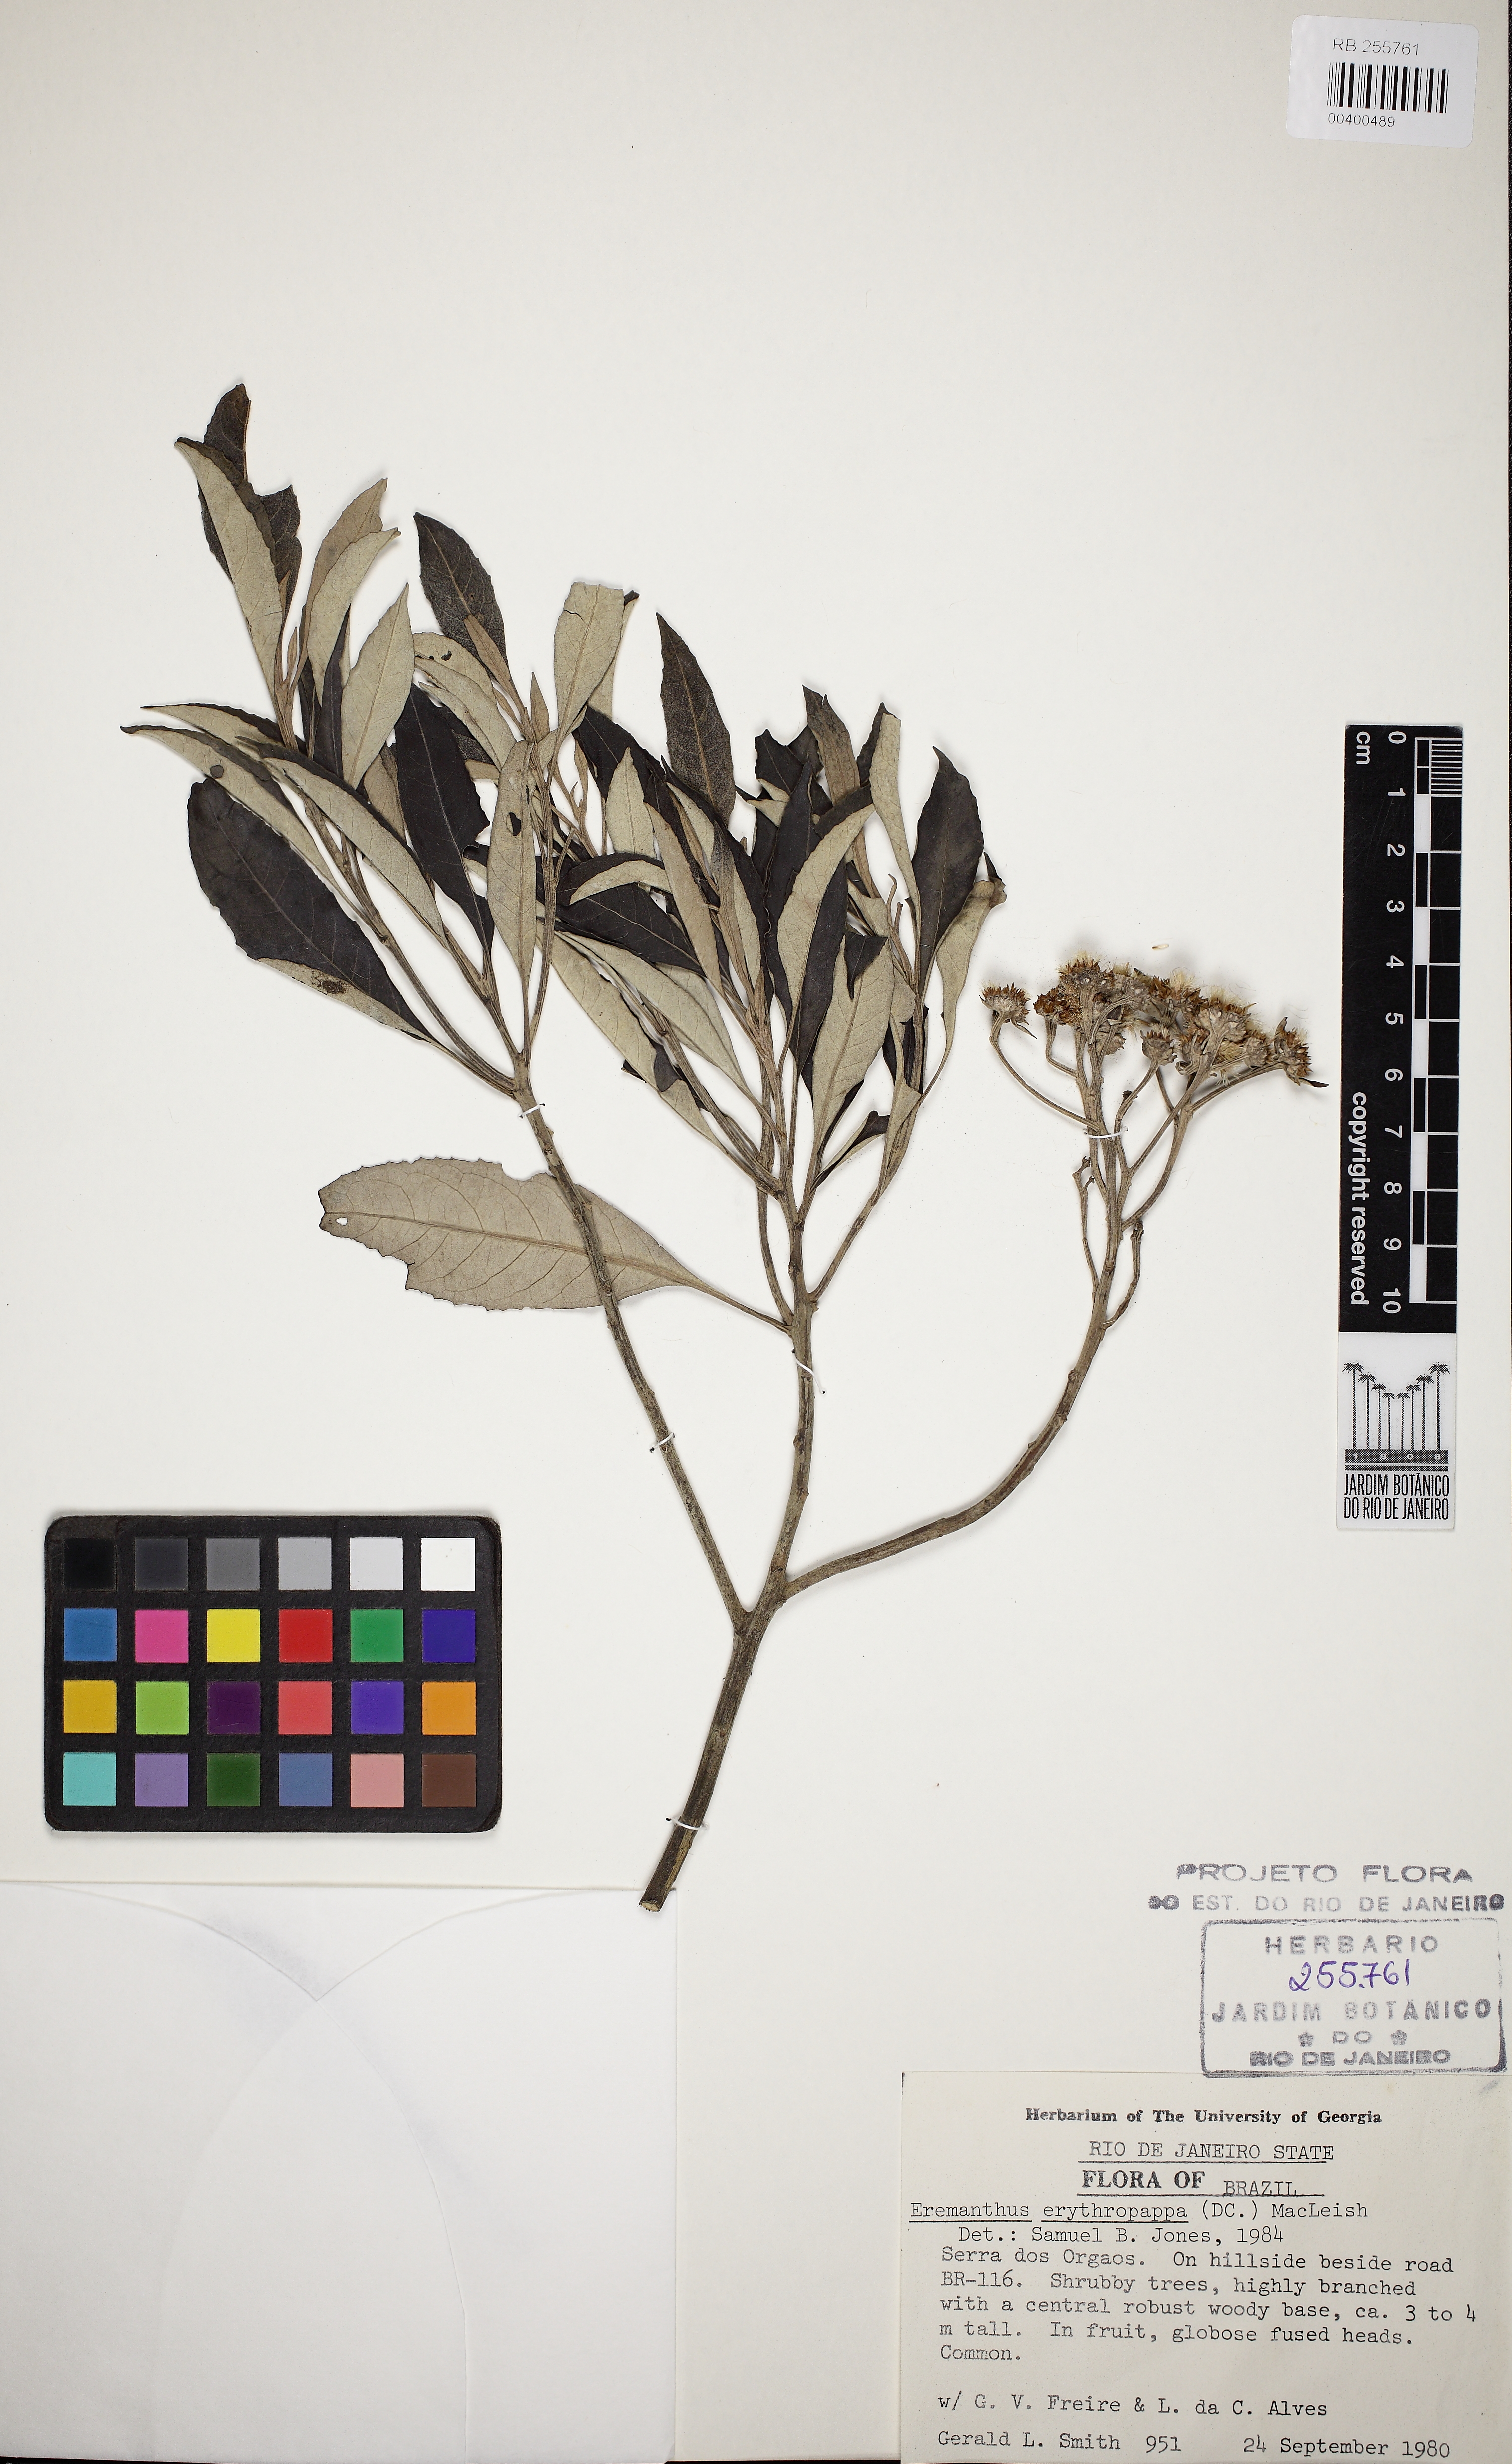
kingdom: Plantae
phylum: Tracheophyta
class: Magnoliopsida
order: Asterales
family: Asteraceae
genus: Eremanthus
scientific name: Eremanthus erythropappus
